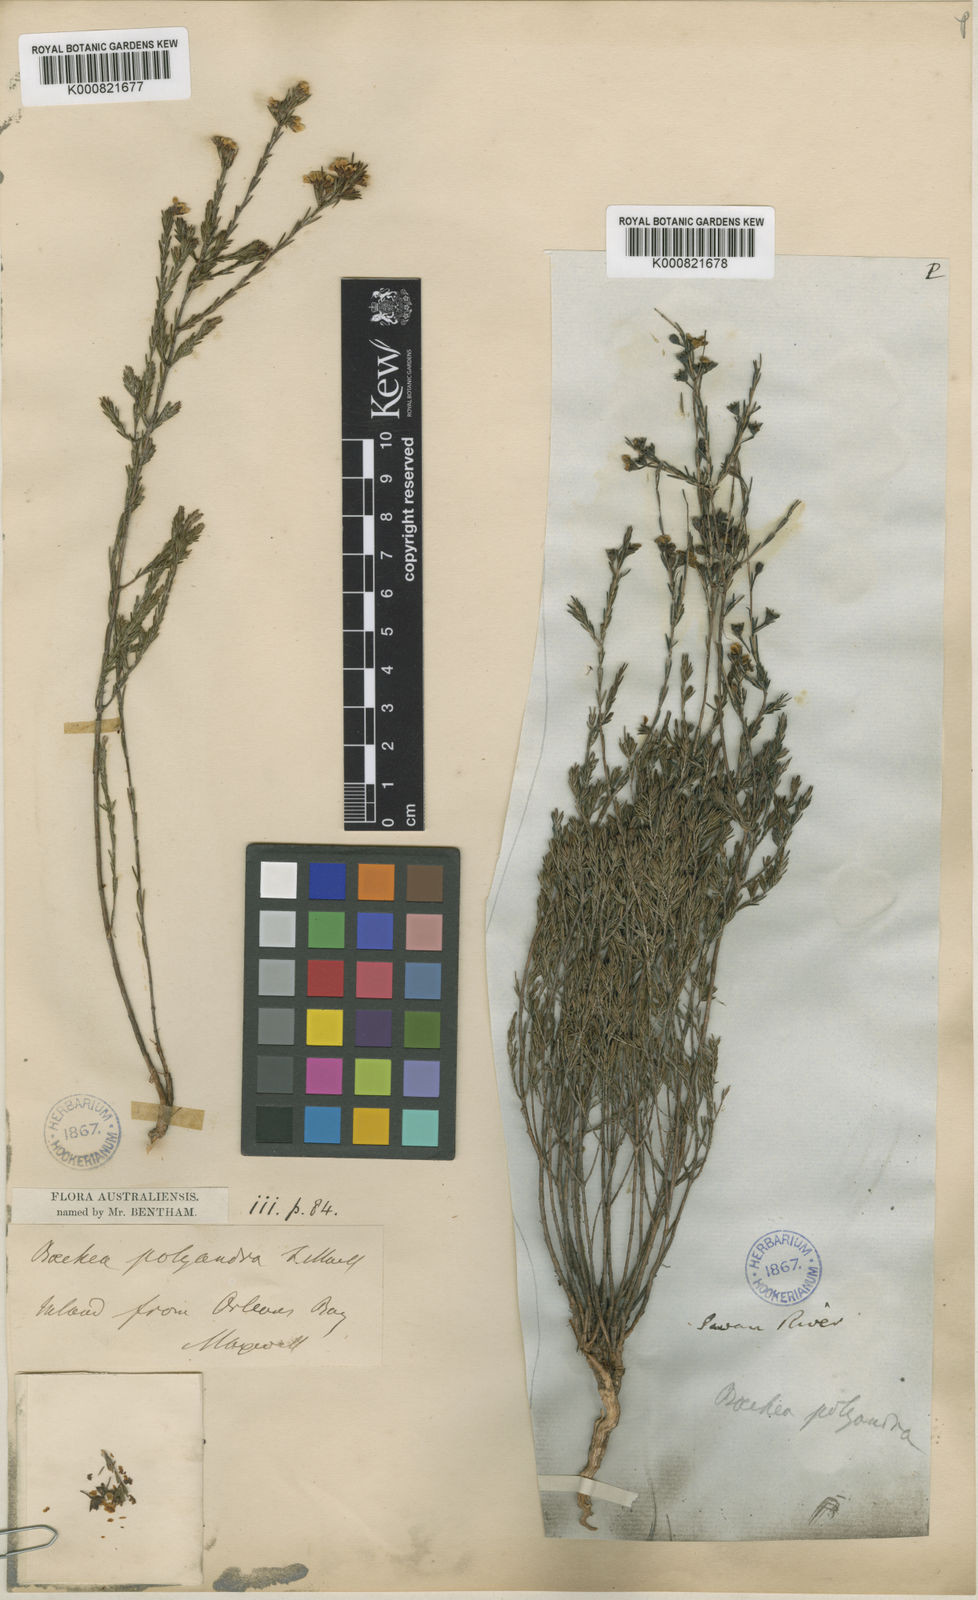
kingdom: Plantae
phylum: Tracheophyta
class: Magnoliopsida
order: Myrtales
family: Myrtaceae
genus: Oxymyrrhine
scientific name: Oxymyrrhine gracilis
